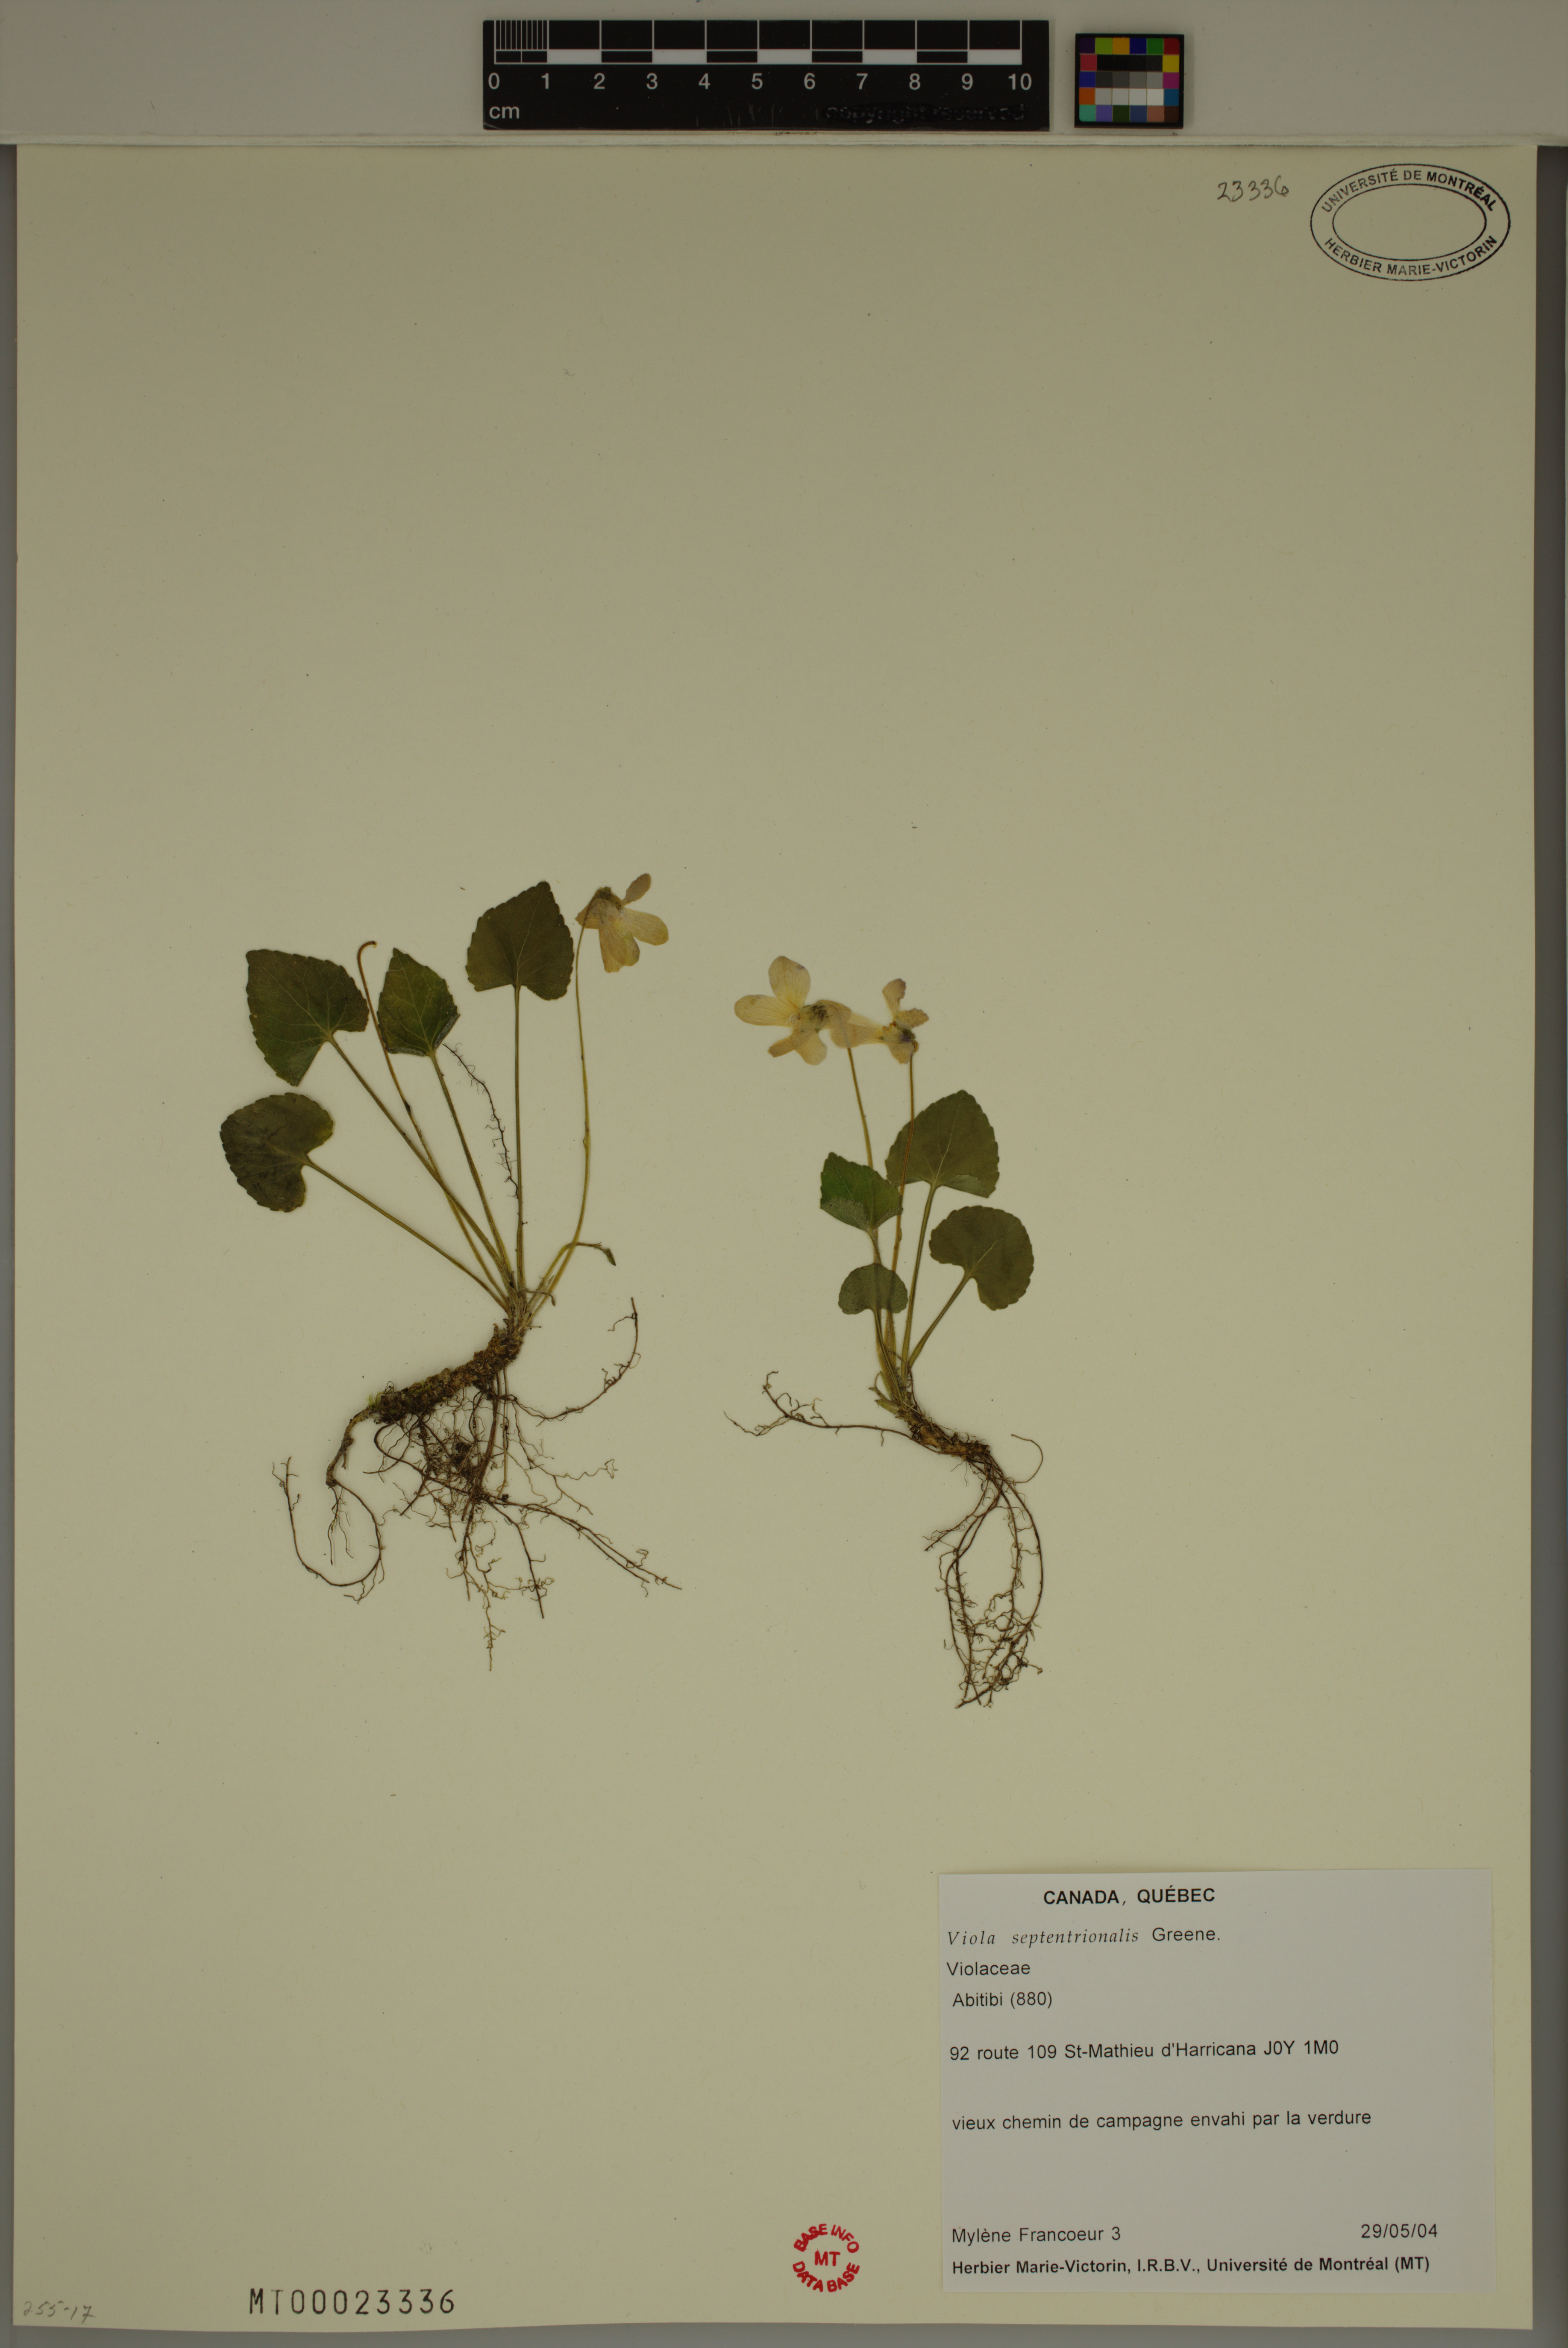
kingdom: Plantae
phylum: Tracheophyta
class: Magnoliopsida
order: Malpighiales
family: Violaceae
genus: Viola
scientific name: Viola sororia
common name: Dooryard violet
